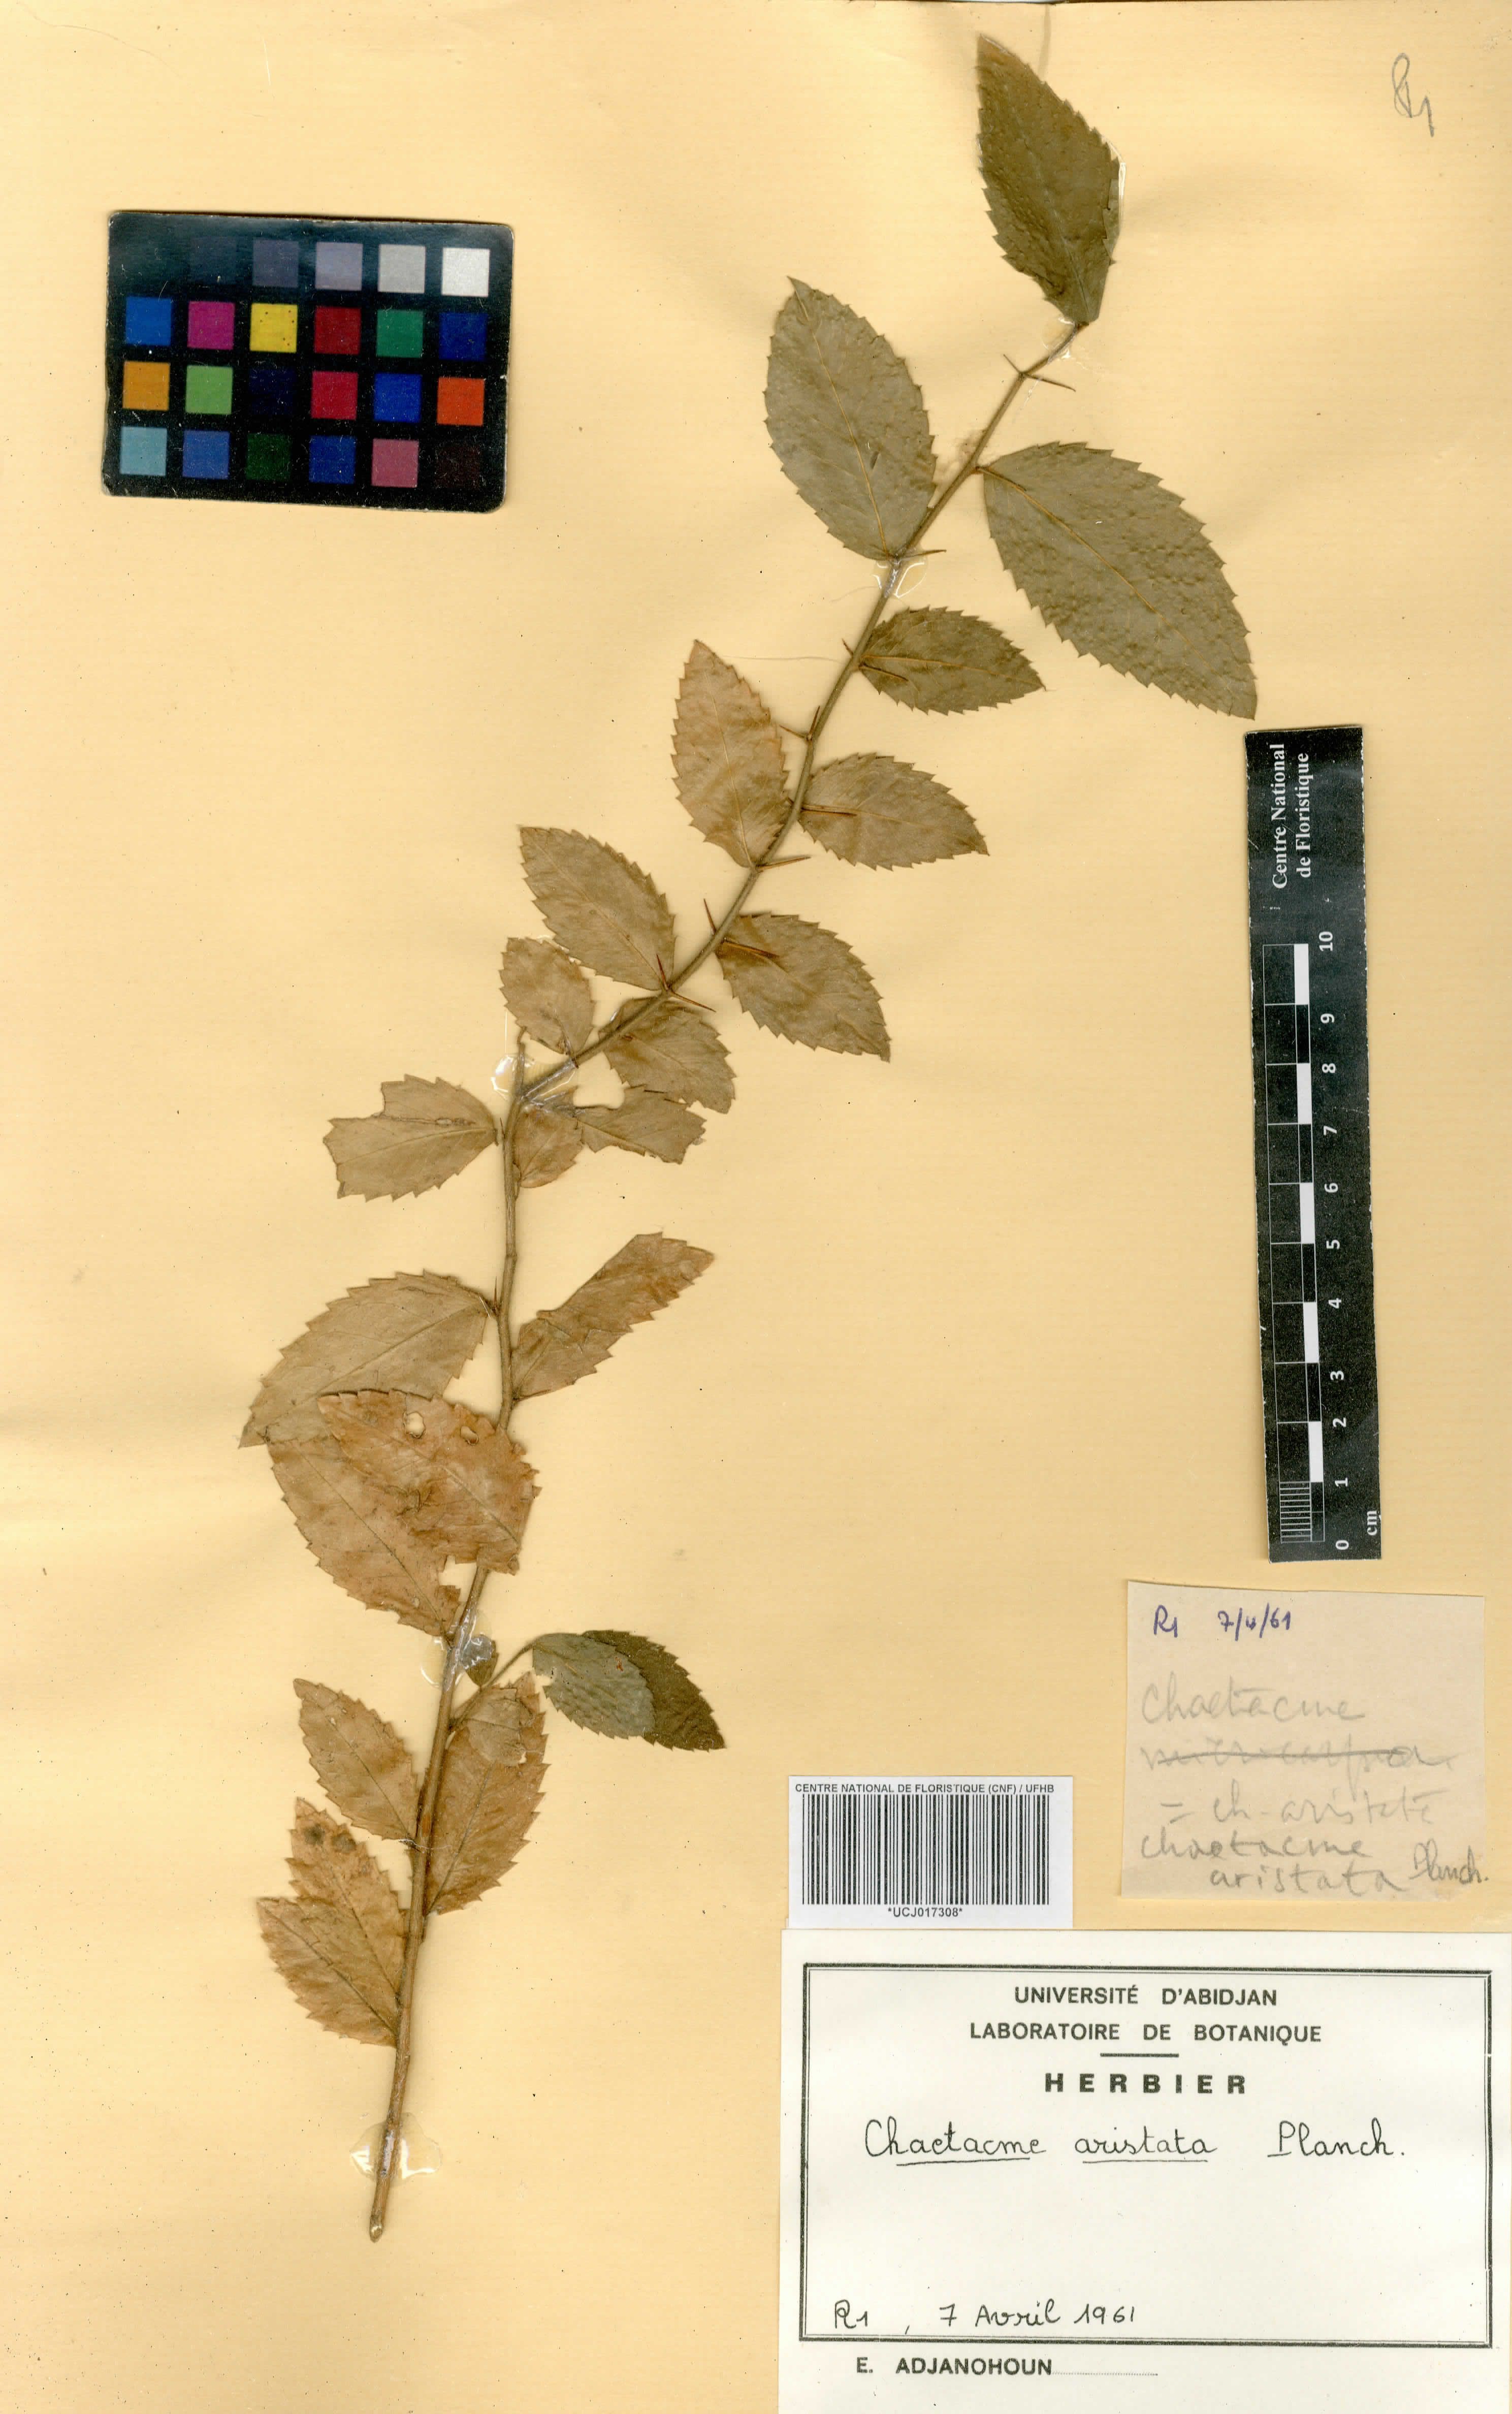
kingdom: Plantae
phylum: Tracheophyta
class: Magnoliopsida
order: Rosales
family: Cannabaceae
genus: Chaetachme
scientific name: Chaetachme aristata
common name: Thorny elm
